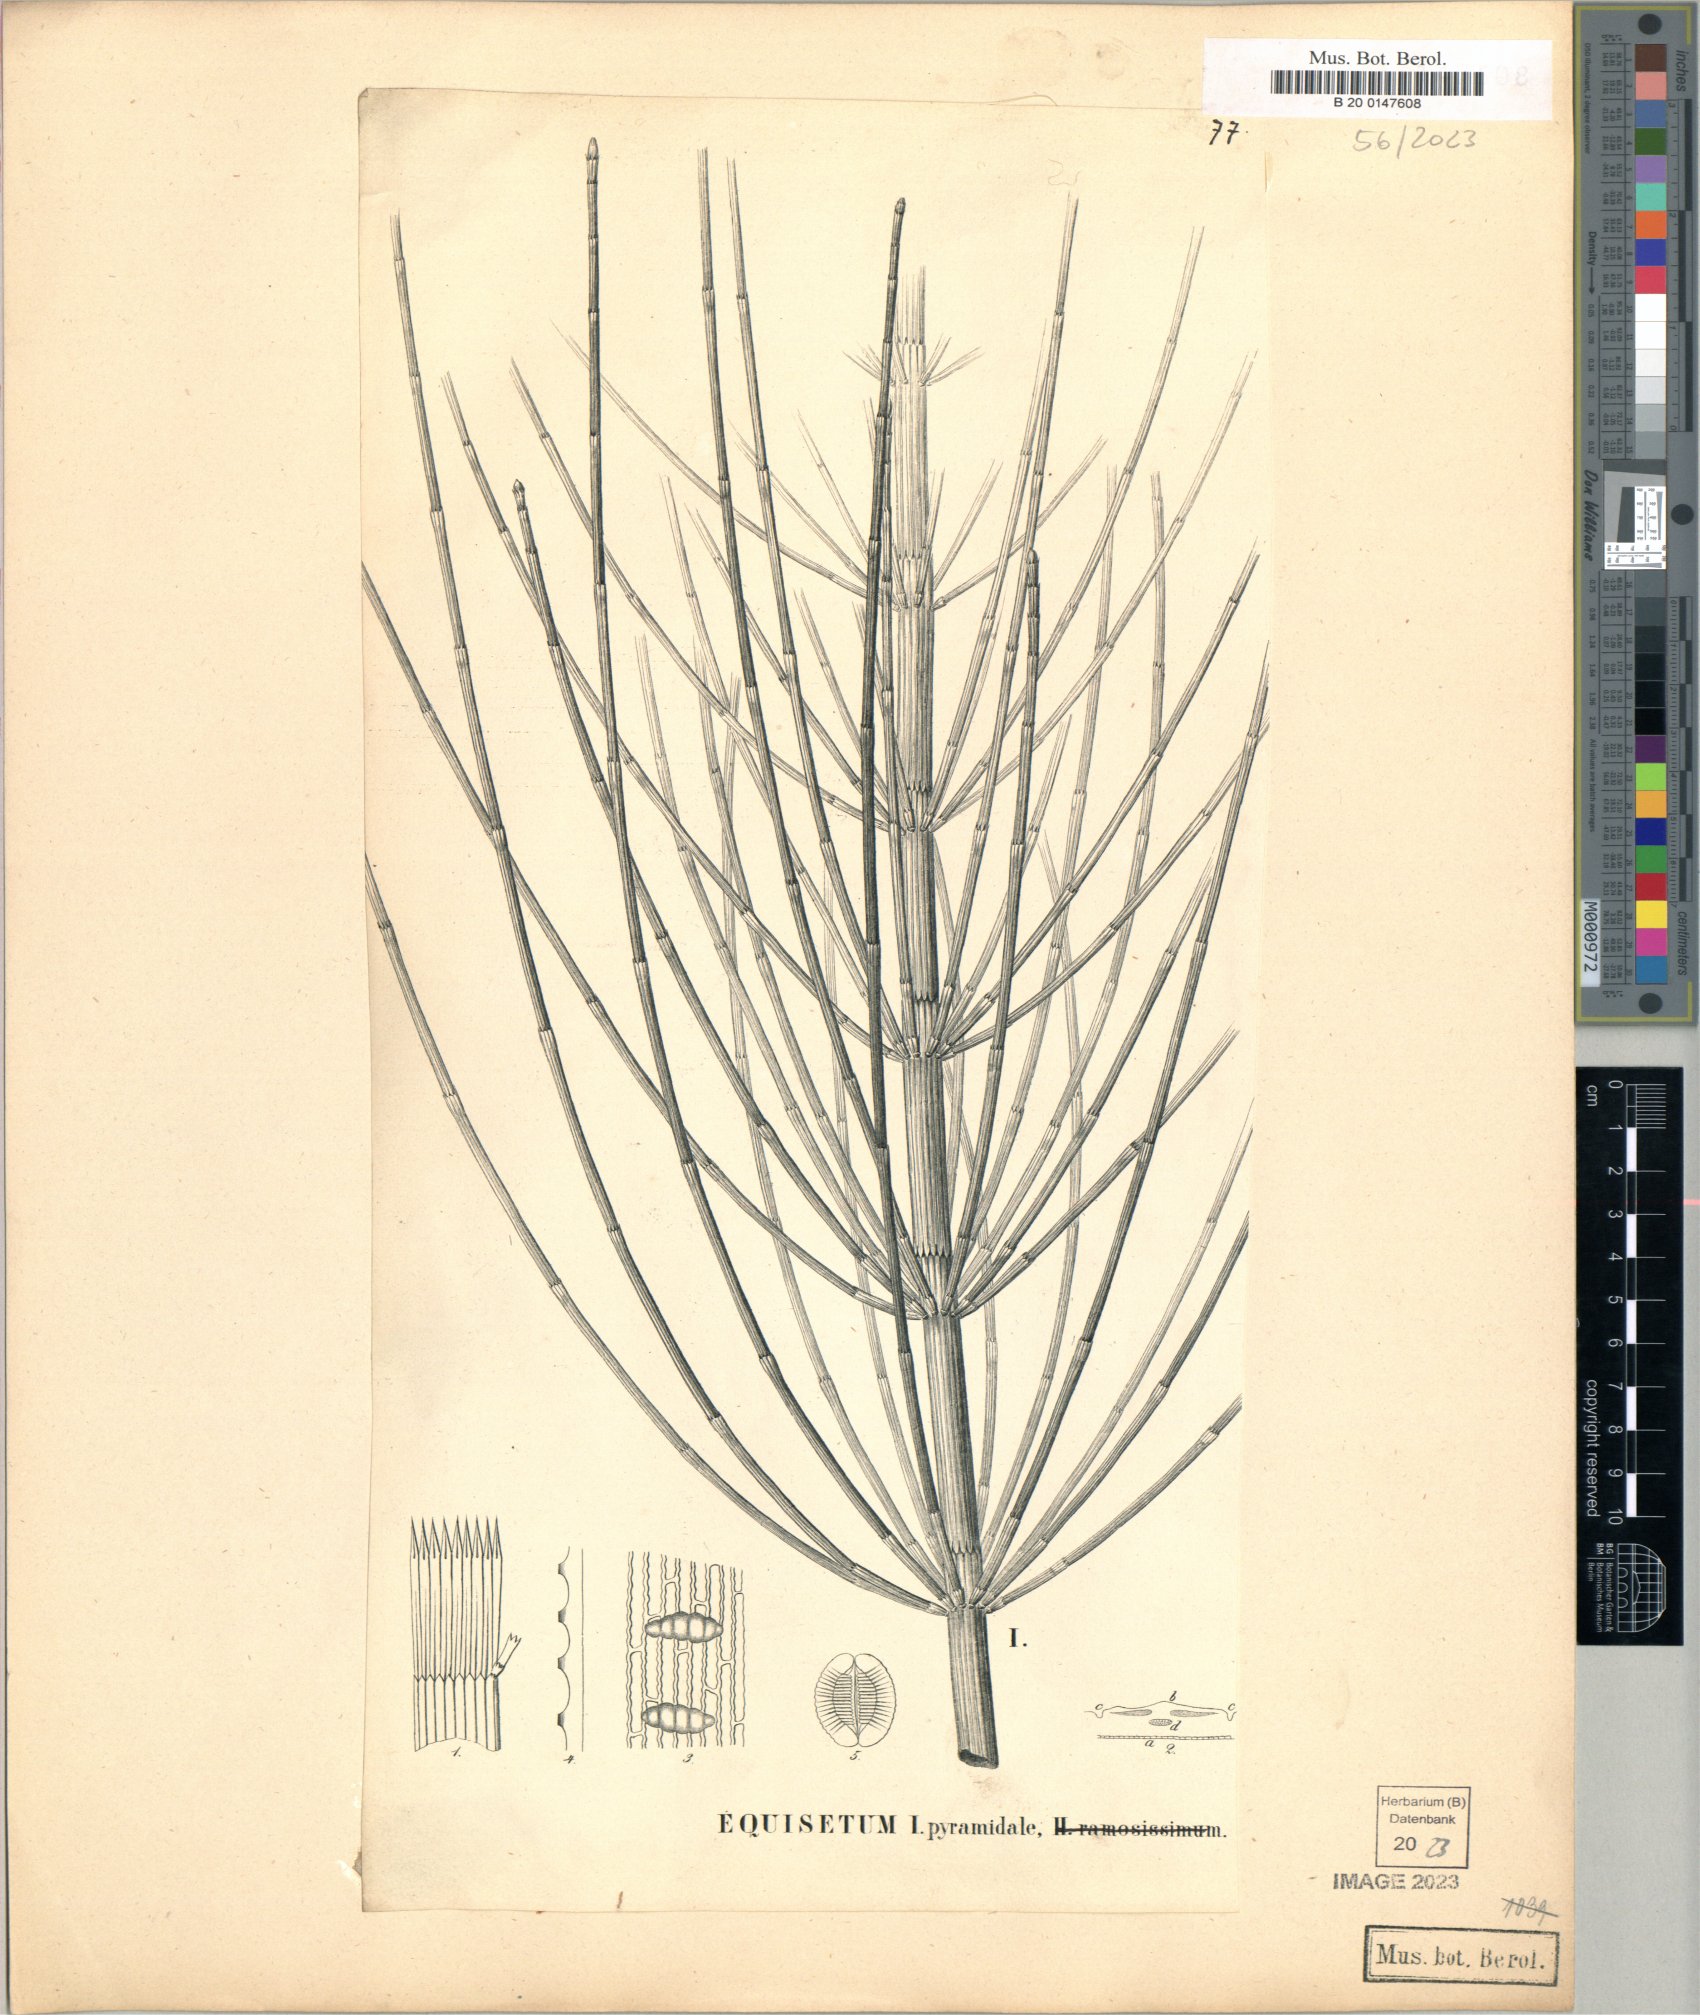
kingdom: Plantae
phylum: Tracheophyta
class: Polypodiopsida
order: Equisetales
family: Equisetaceae
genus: Equisetum
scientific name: Equisetum giganteum
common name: Giant horsetail
